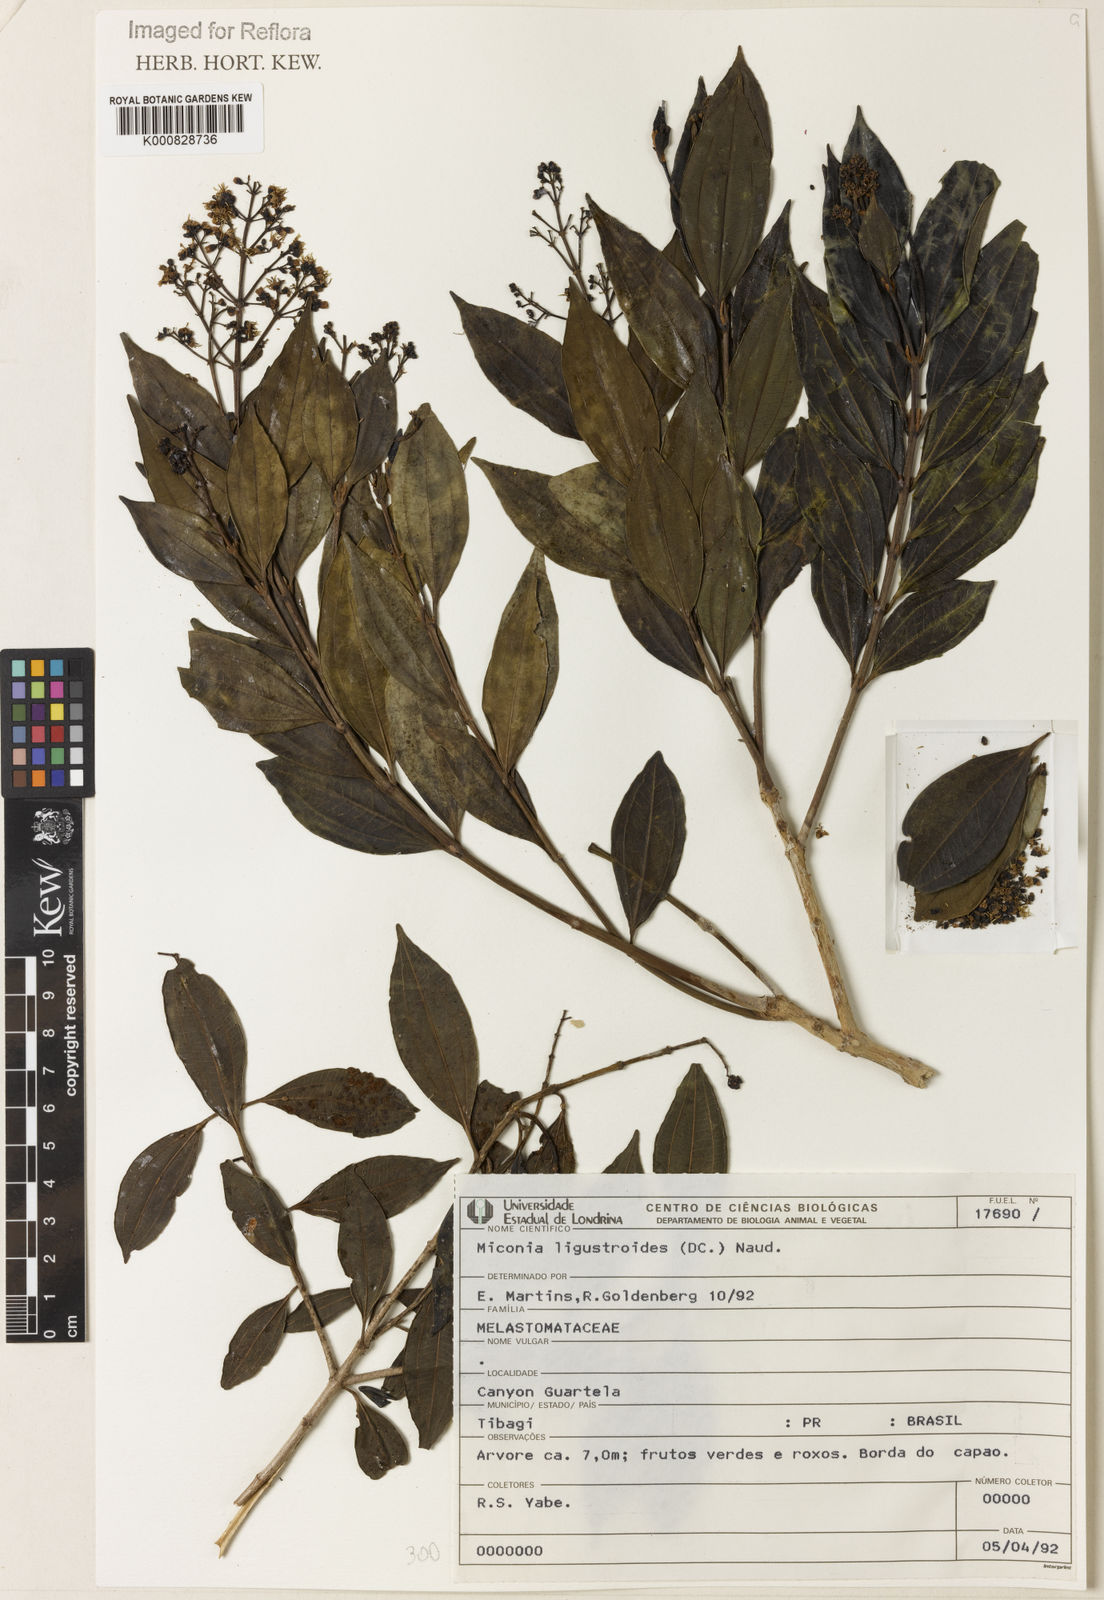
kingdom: Plantae
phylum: Tracheophyta
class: Magnoliopsida
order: Myrtales
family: Melastomataceae
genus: Miconia
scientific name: Miconia ligustroides
